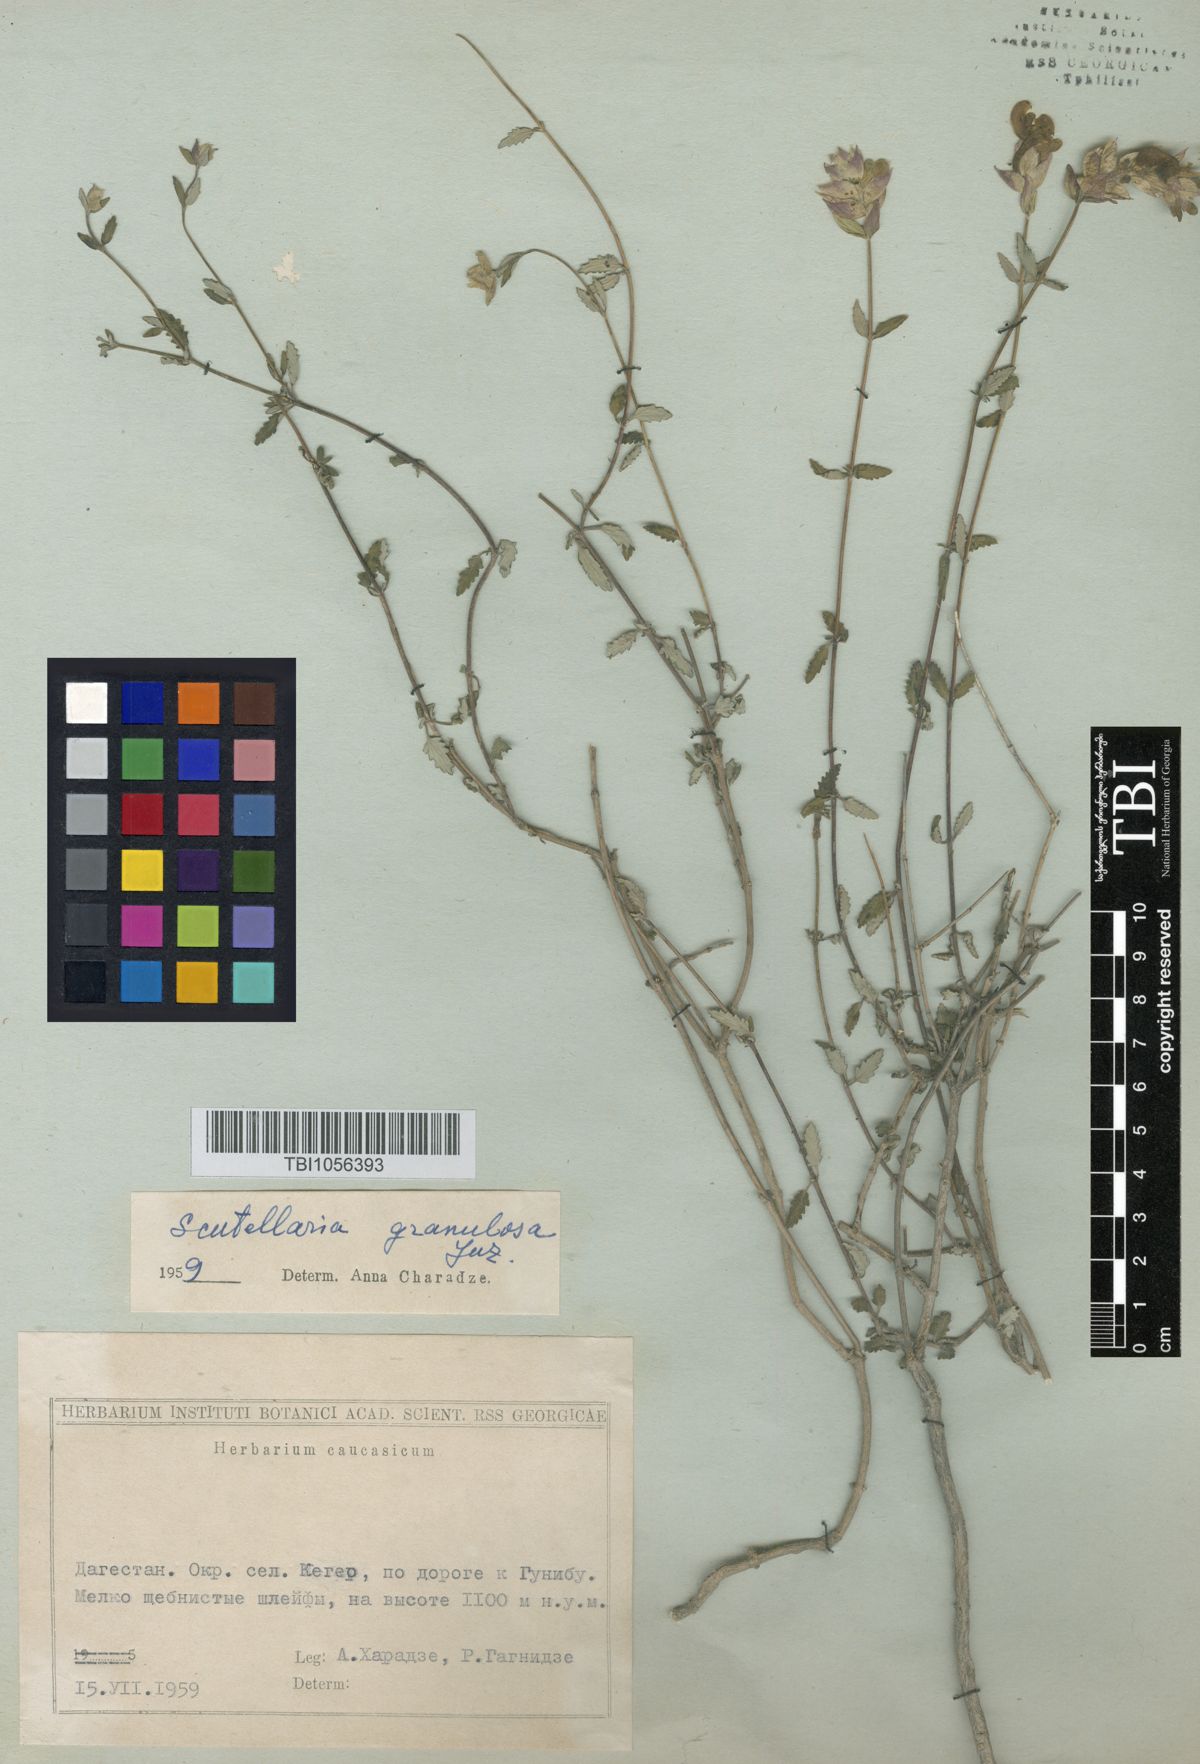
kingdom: Plantae
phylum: Tracheophyta
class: Magnoliopsida
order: Lamiales
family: Lamiaceae
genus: Scutellaria
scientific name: Scutellaria granulosa
